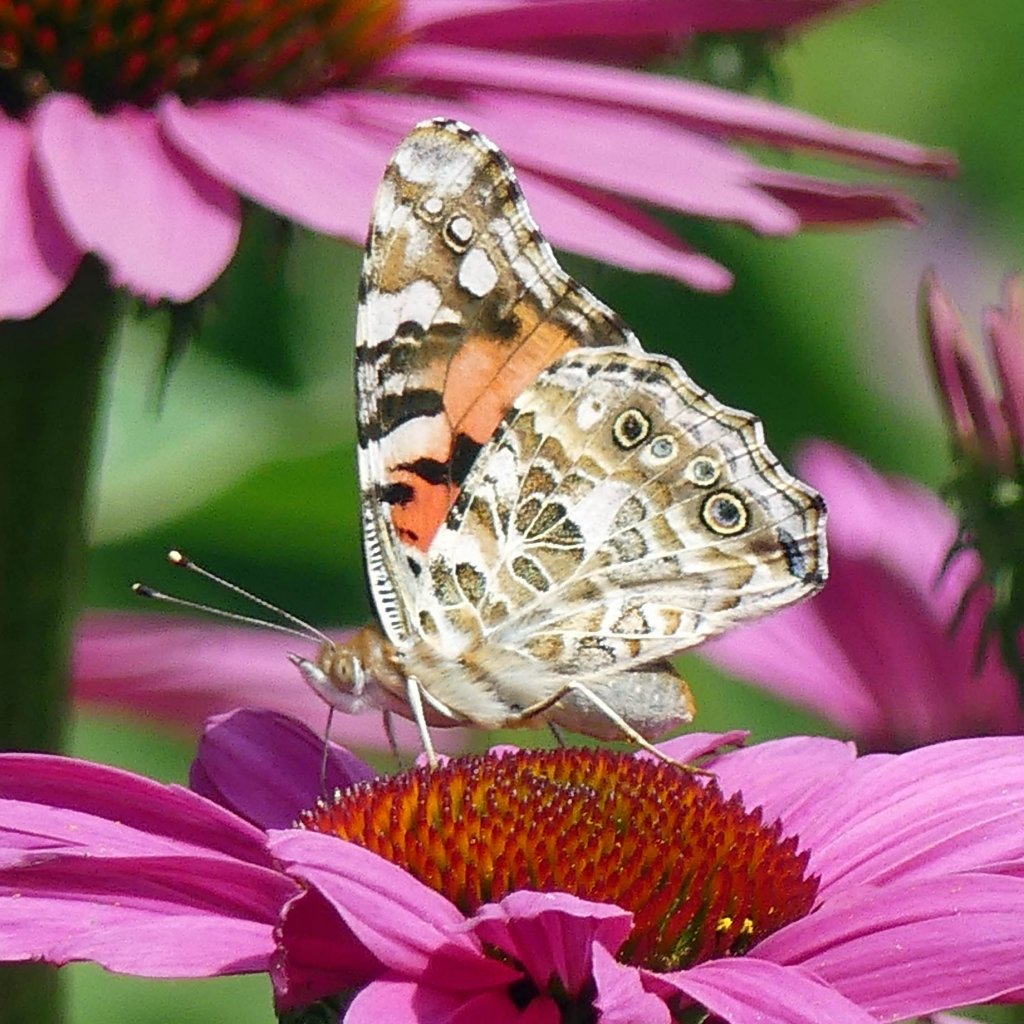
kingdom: Animalia
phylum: Arthropoda
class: Insecta
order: Lepidoptera
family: Nymphalidae
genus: Vanessa
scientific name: Vanessa cardui
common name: Painted Lady
